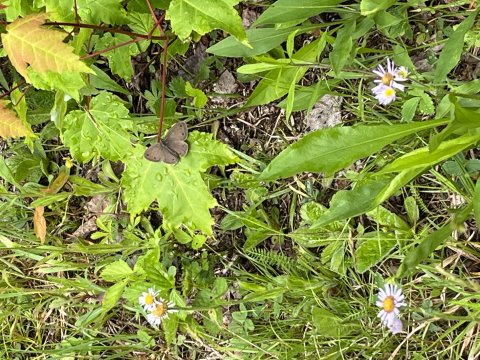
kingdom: Animalia
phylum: Arthropoda
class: Insecta
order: Lepidoptera
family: Nymphalidae
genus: Euptychia
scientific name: Euptychia cymela
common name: Little Wood Satyr
